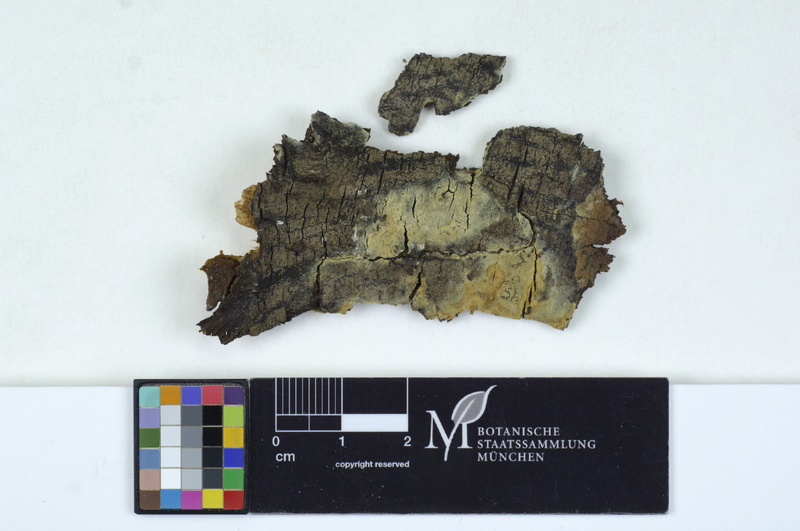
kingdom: Fungi
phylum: Basidiomycota
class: Agaricomycetes
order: Cantharellales
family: Ceratobasidiaceae
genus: Rhizoctonia
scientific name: Rhizoctonia fusispora
